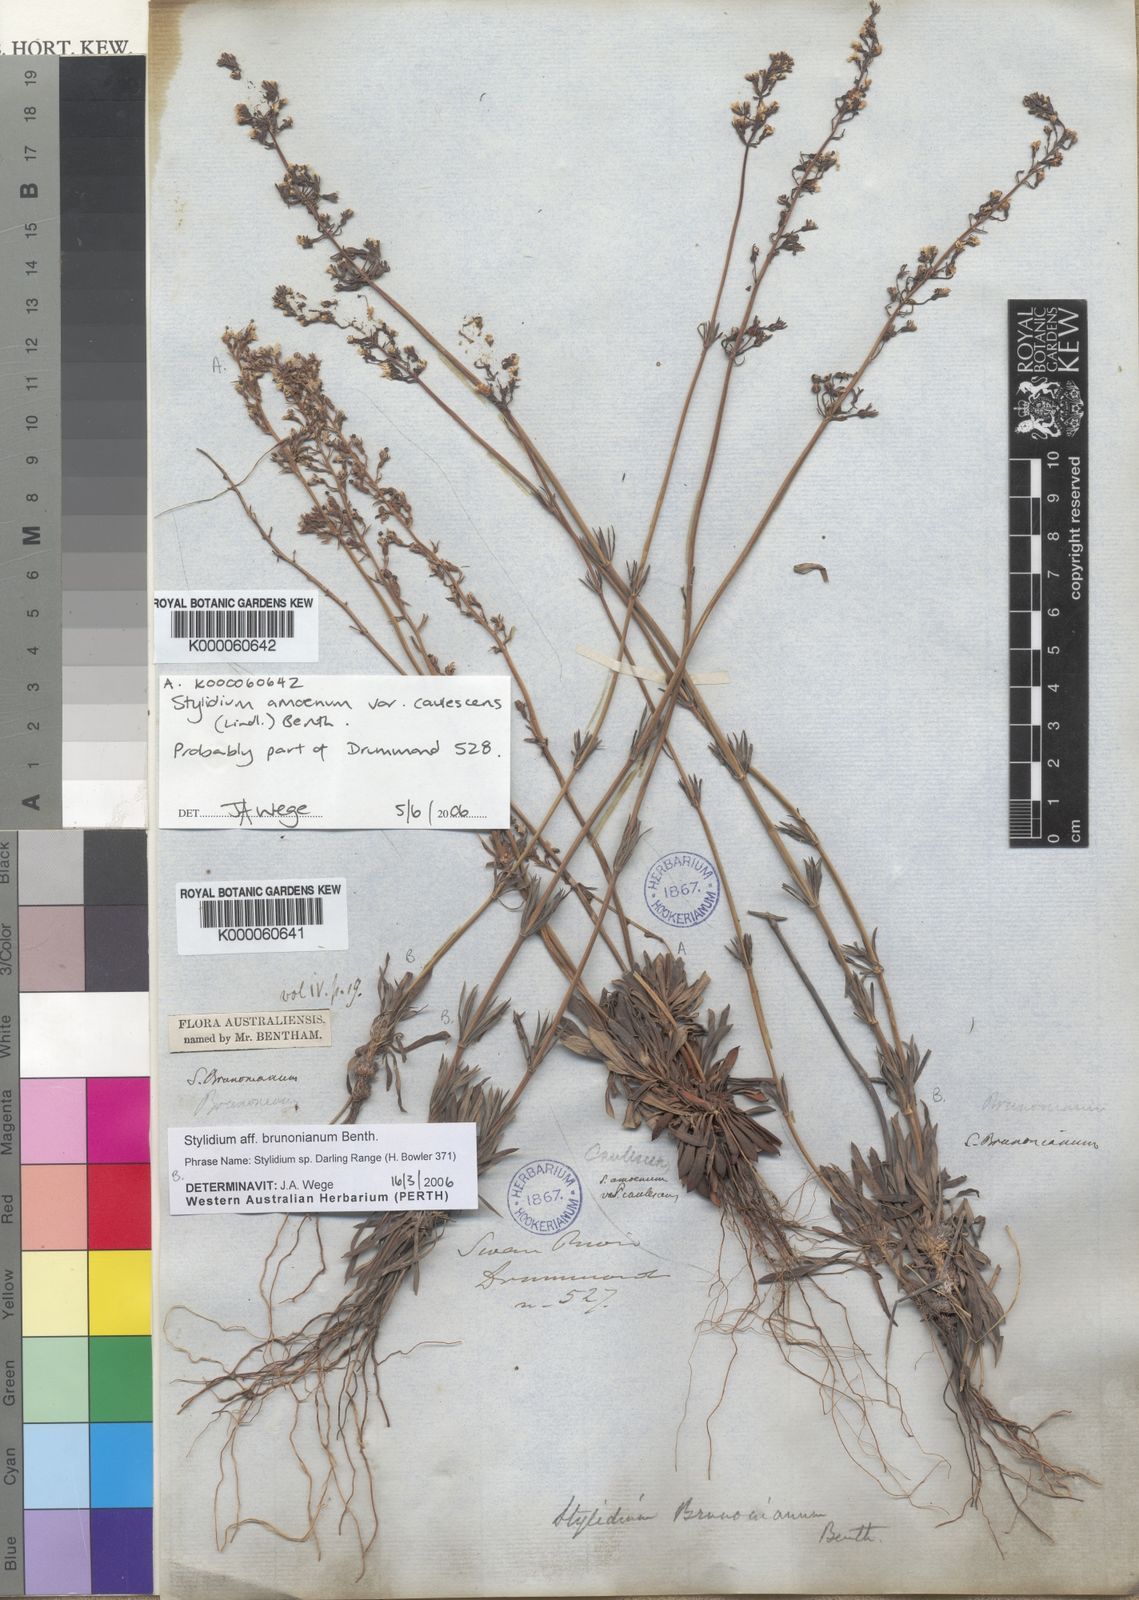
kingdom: Plantae
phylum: Tracheophyta
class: Magnoliopsida
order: Asterales
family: Stylidiaceae
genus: Stylidium
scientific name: Stylidium amoenum
